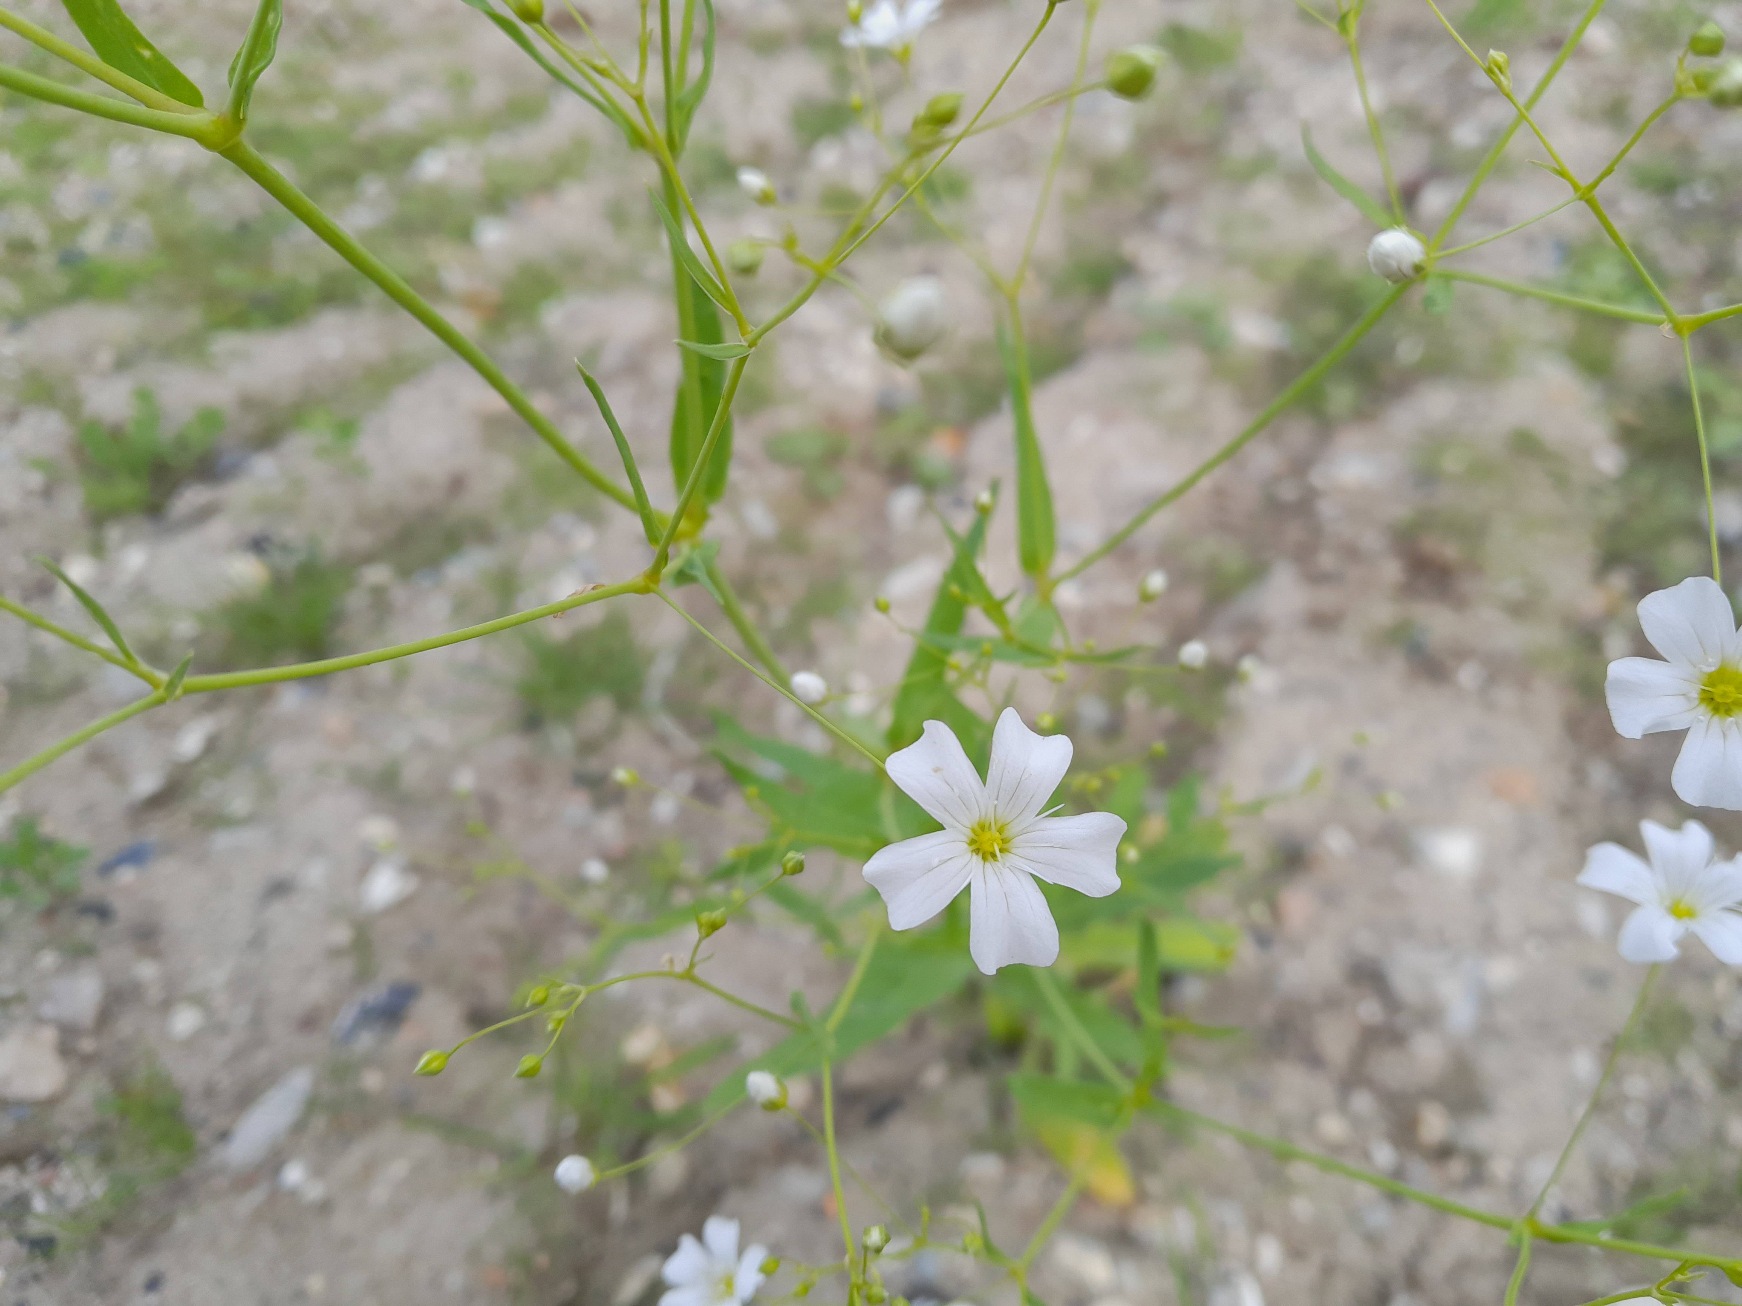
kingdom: Plantae
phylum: Tracheophyta
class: Magnoliopsida
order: Caryophyllales
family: Caryophyllaceae
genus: Gypsophila
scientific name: Gypsophila elegans
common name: Enårig brudeslør
